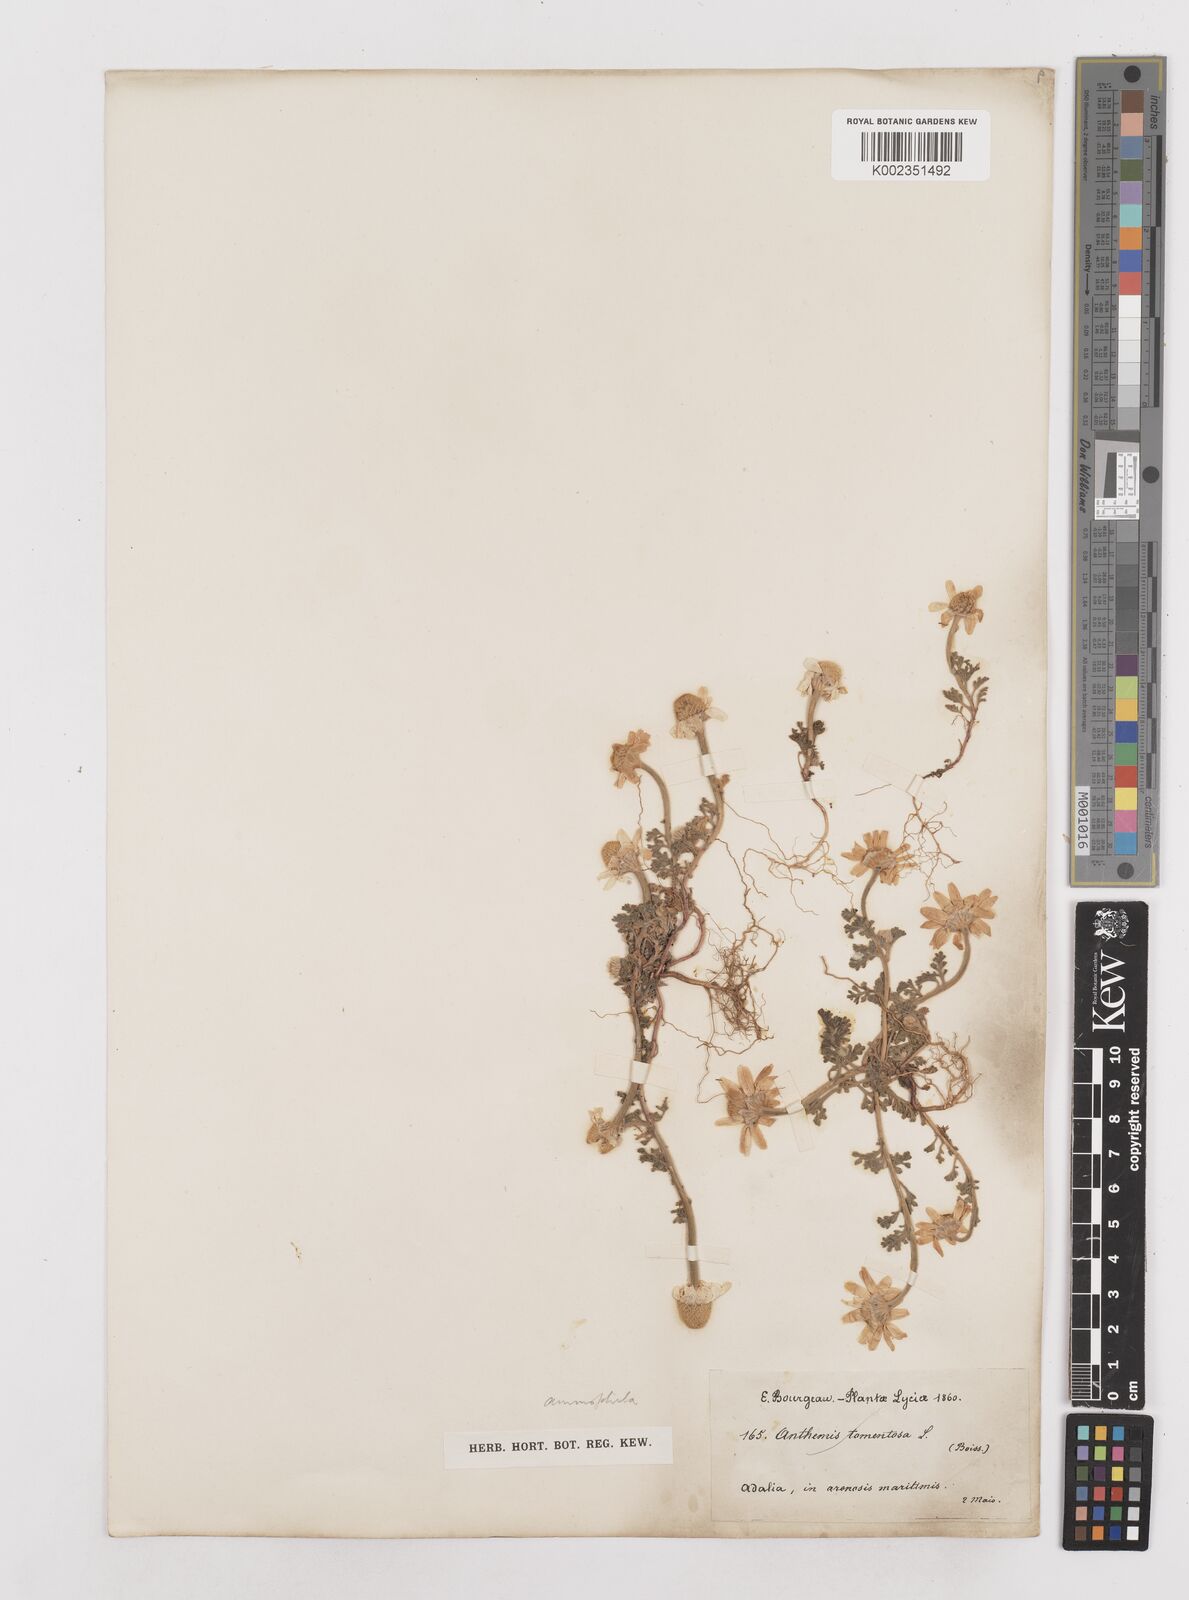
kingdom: Plantae
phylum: Tracheophyta
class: Magnoliopsida
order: Asterales
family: Asteraceae
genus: Anthemis
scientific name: Anthemis tomentosa
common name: Woolly chamomile
